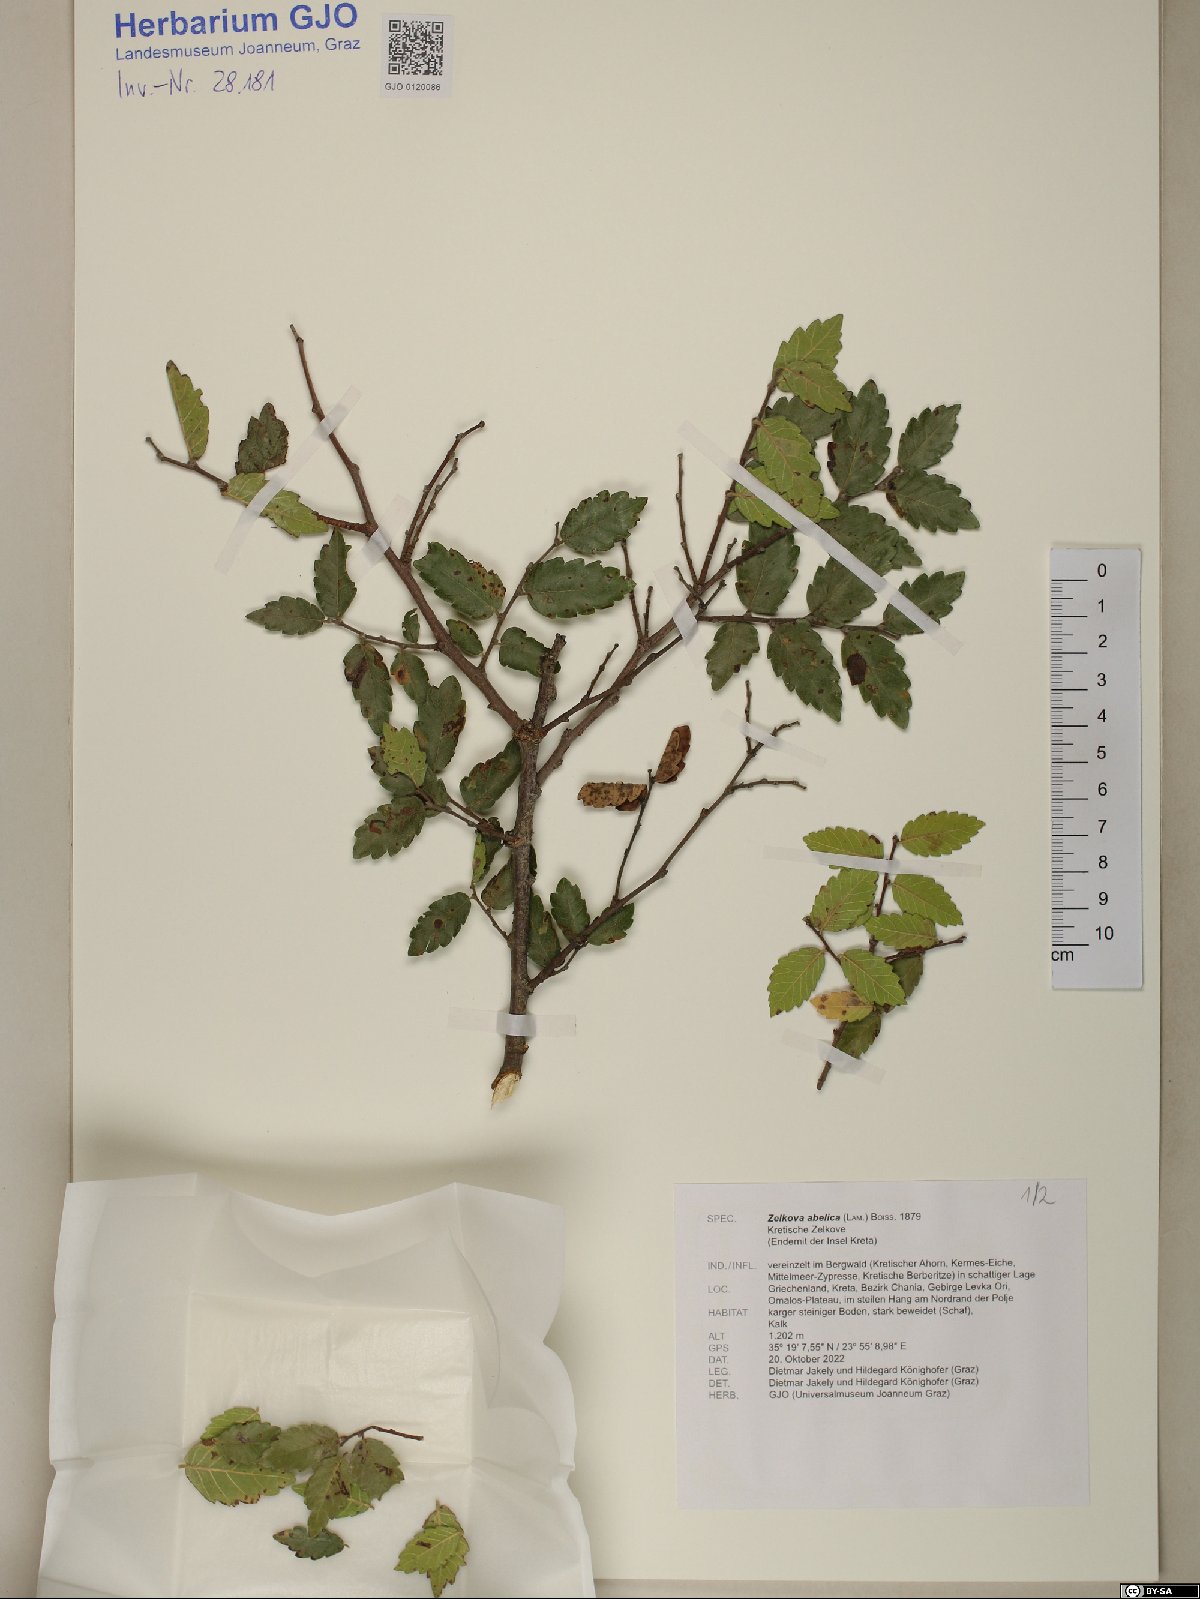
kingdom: Plantae
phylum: Tracheophyta
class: Magnoliopsida
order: Rosales
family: Ulmaceae
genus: Zelkova
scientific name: Zelkova abelicea
